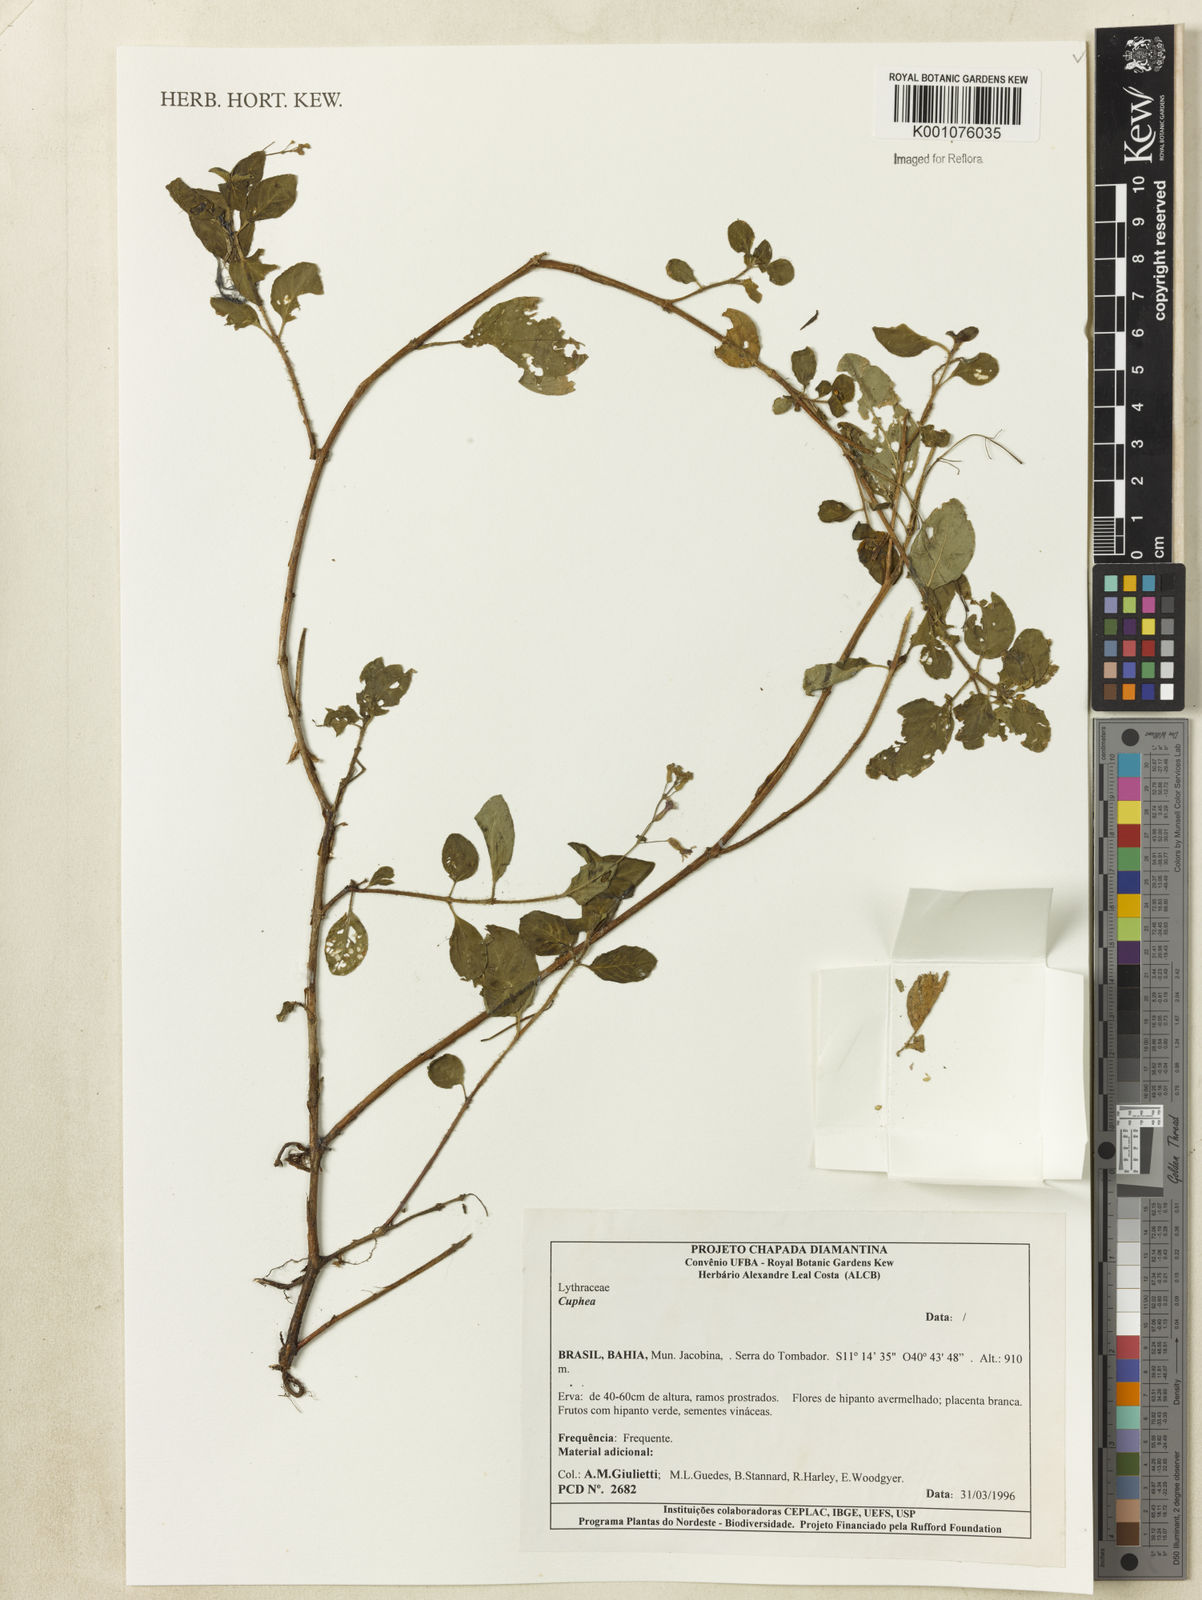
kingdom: Plantae
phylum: Tracheophyta
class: Magnoliopsida
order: Myrtales
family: Lythraceae
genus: Cuphea
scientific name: Cuphea
